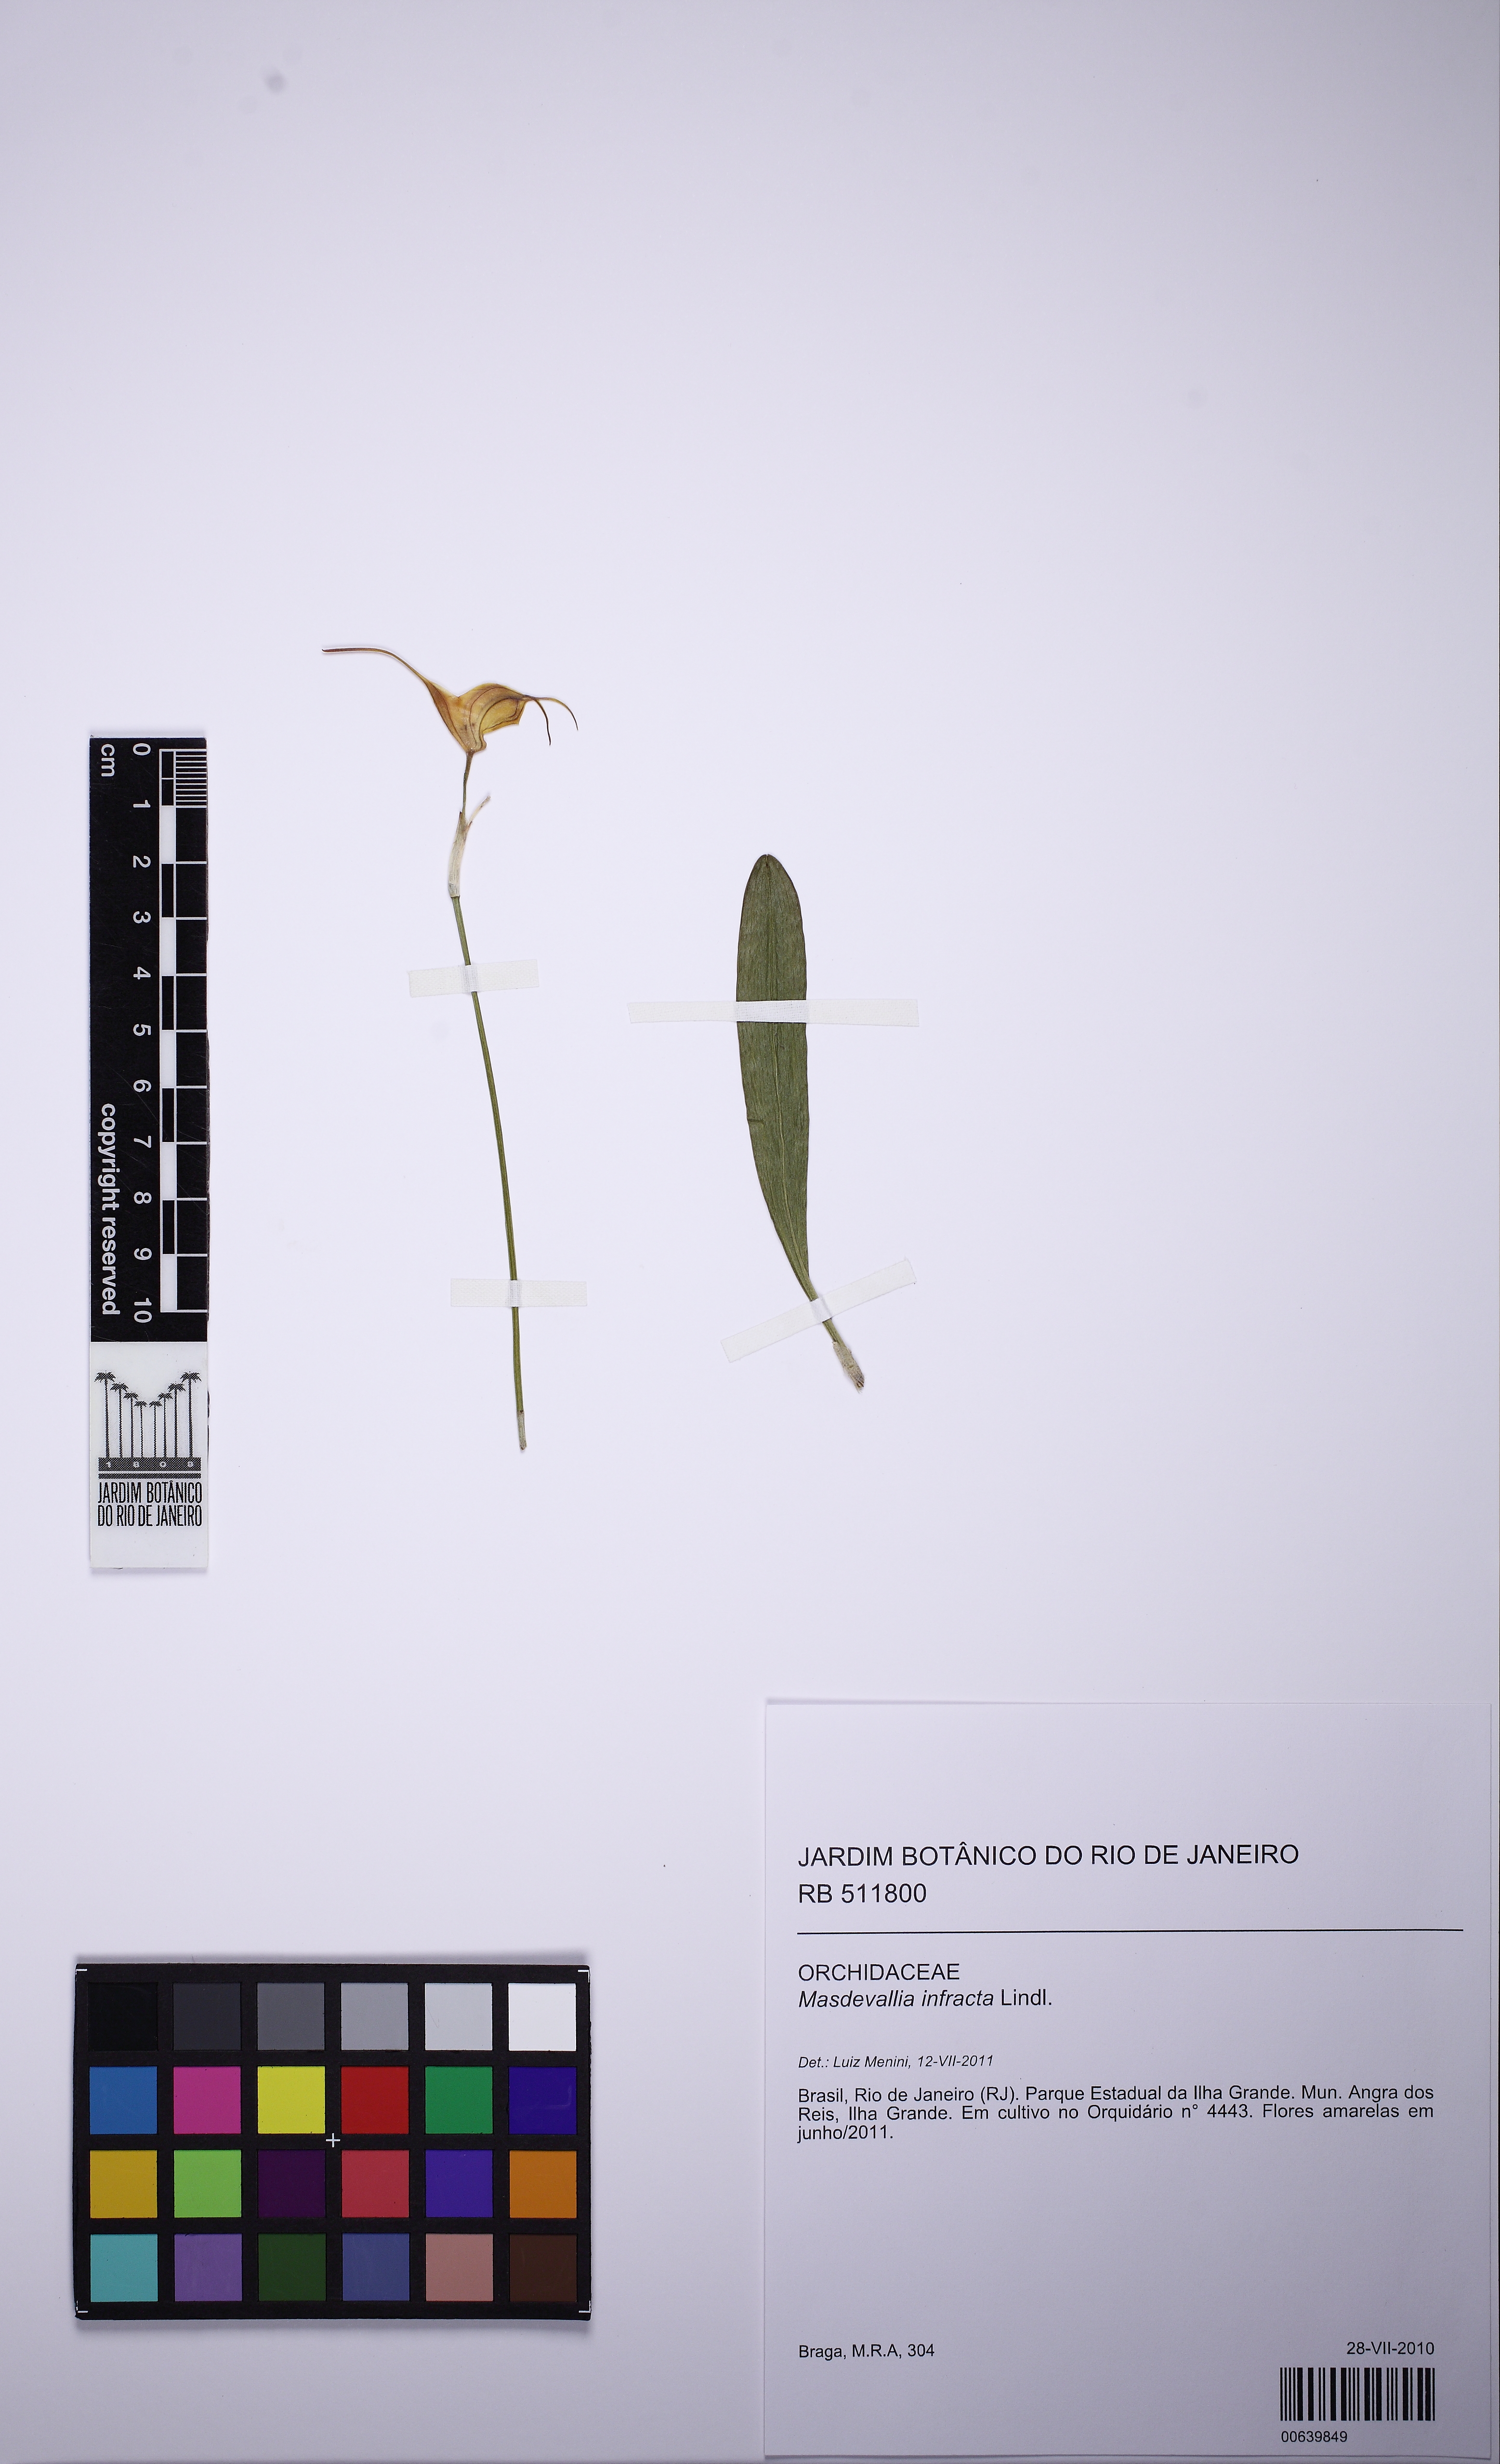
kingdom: Plantae
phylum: Tracheophyta
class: Liliopsida
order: Asparagales
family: Orchidaceae
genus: Masdevallia
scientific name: Masdevallia infracta
